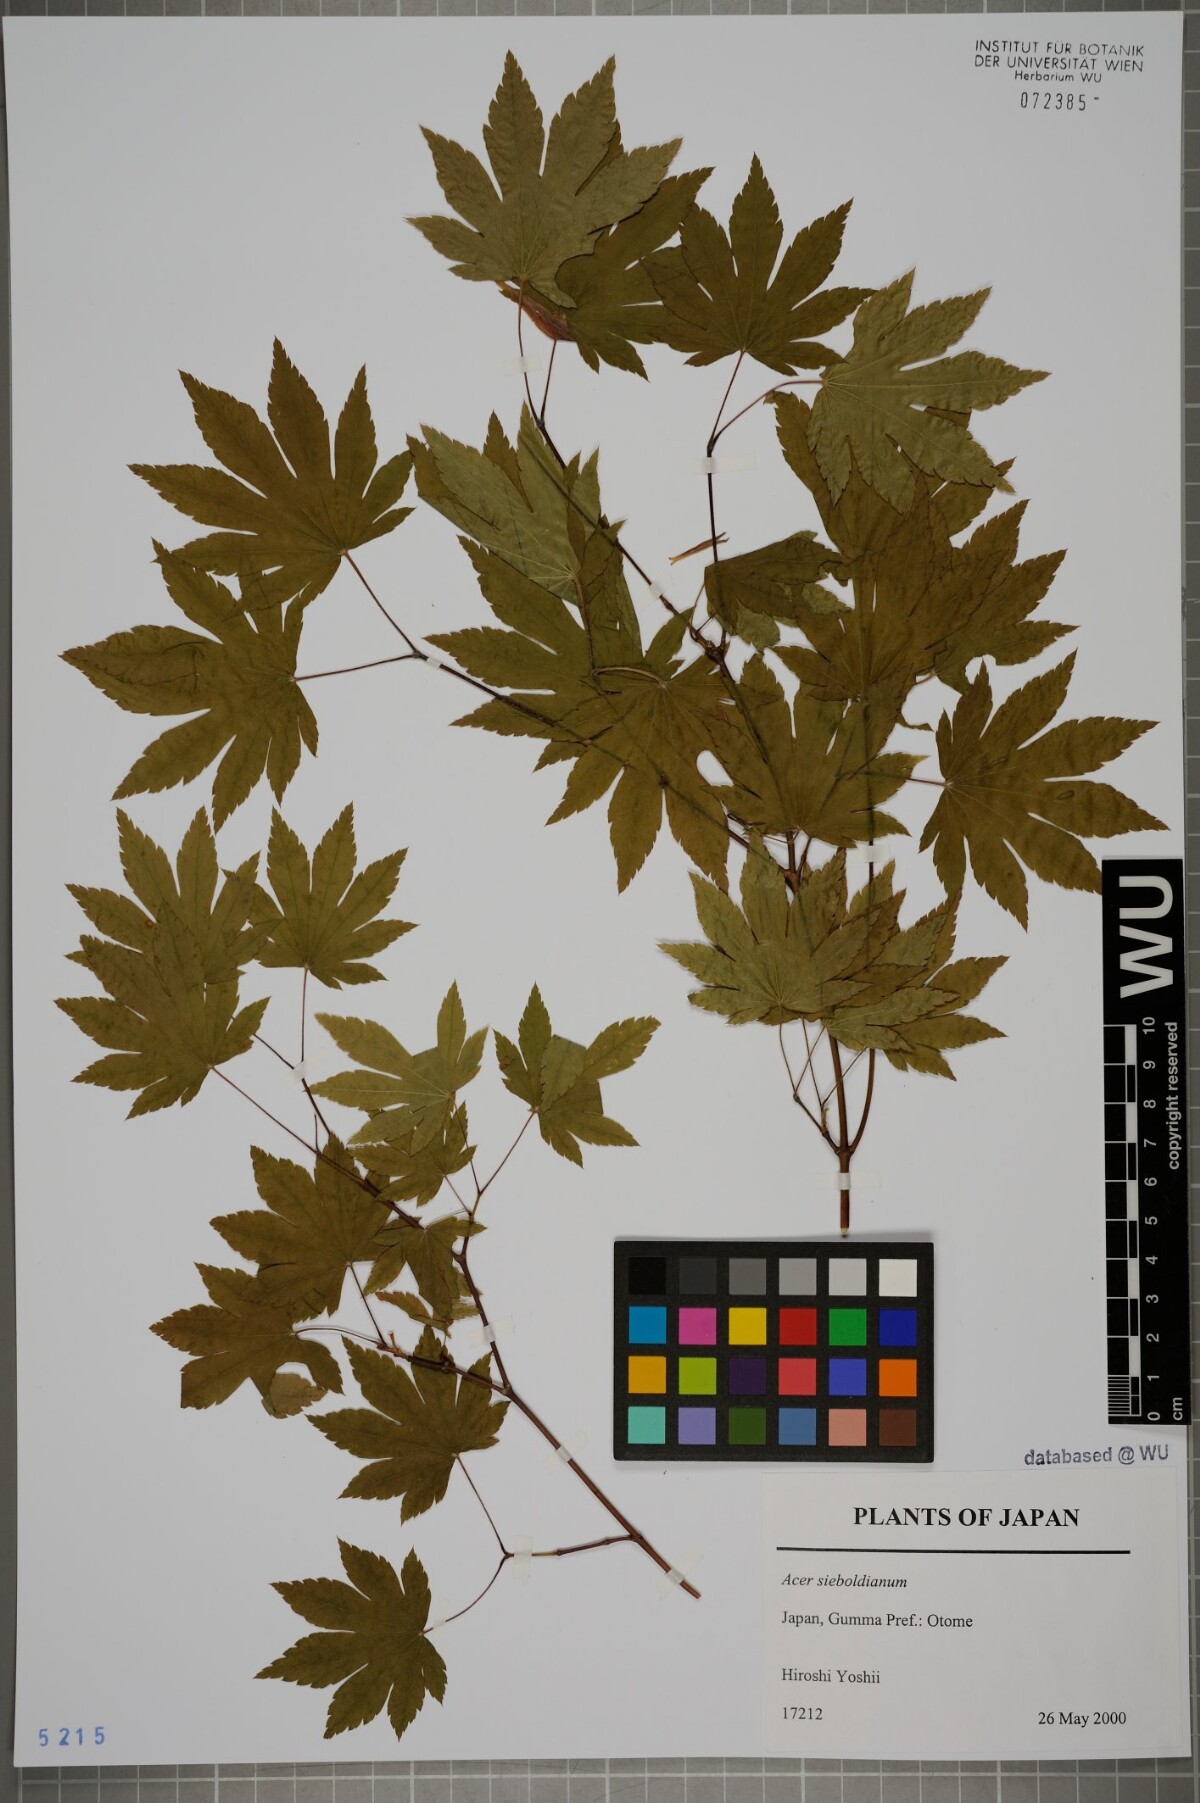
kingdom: Plantae
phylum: Tracheophyta
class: Magnoliopsida
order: Sapindales
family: Sapindaceae
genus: Acer
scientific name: Acer sieboldianum
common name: Siebold's maple
